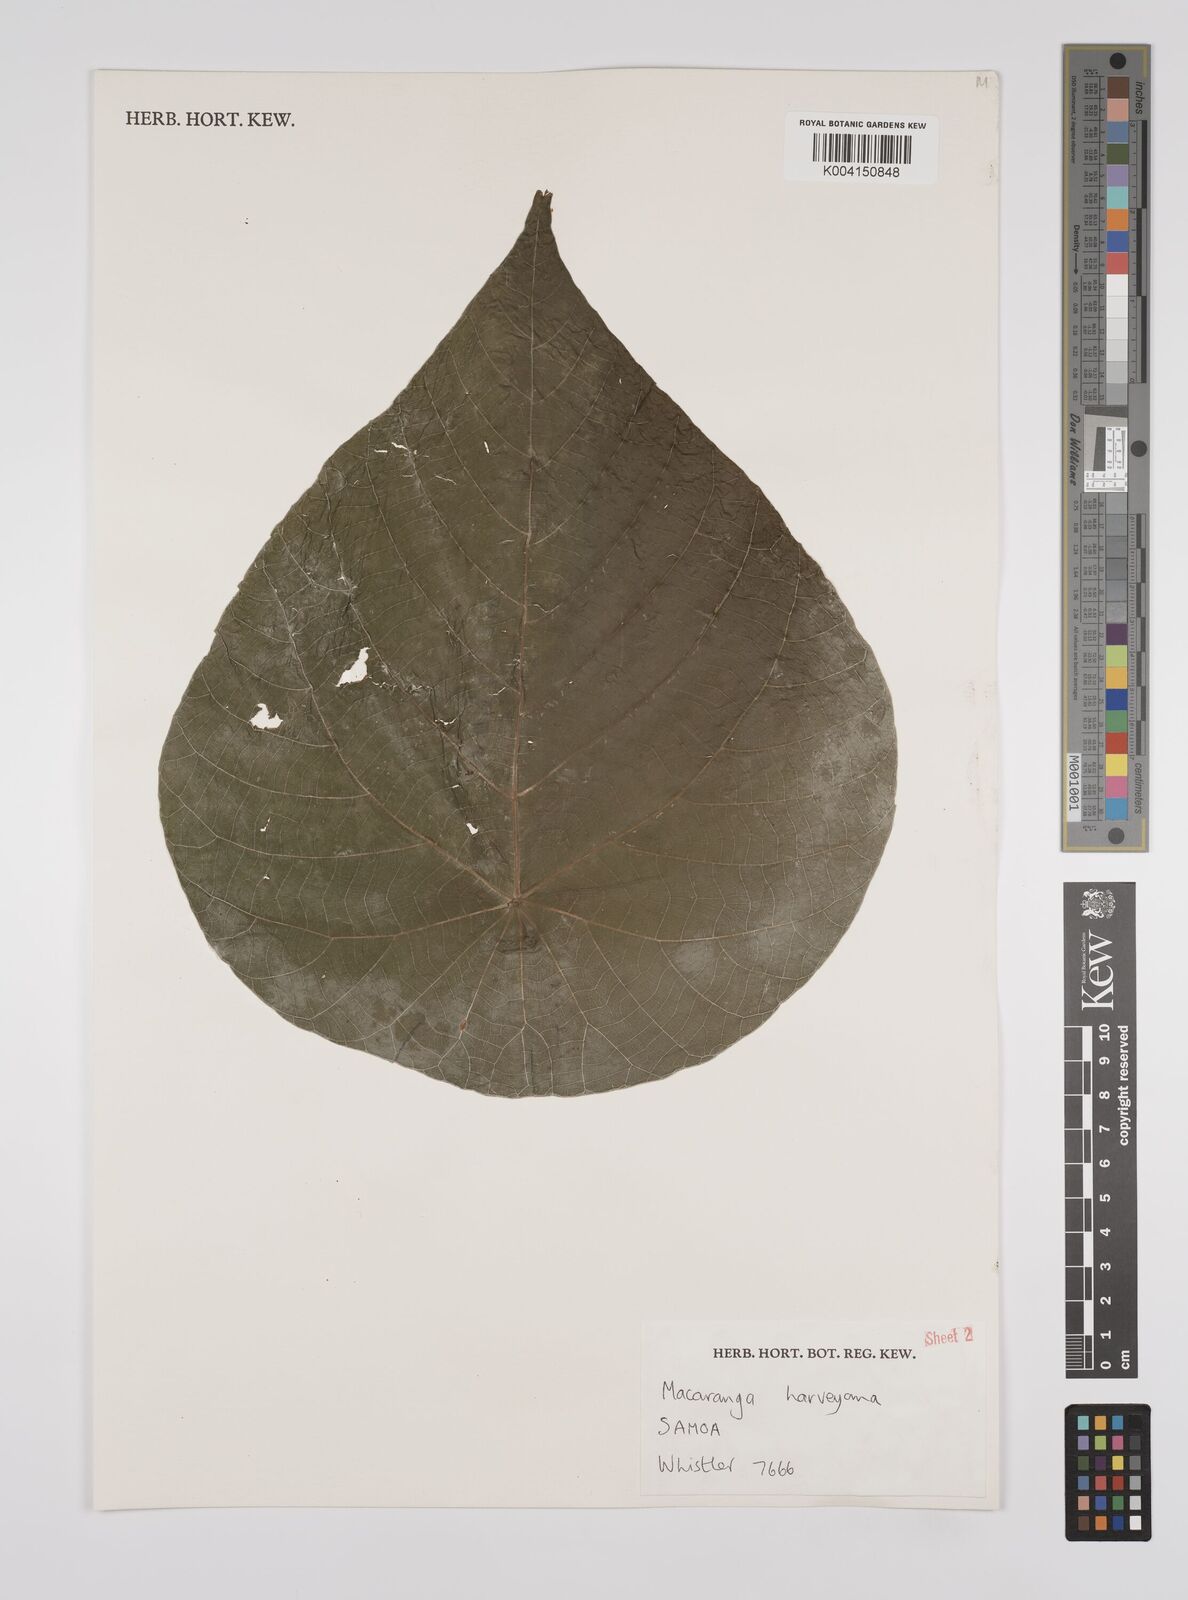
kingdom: Plantae
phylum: Tracheophyta
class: Magnoliopsida
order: Malpighiales
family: Euphorbiaceae
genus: Macaranga
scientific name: Macaranga harveyana
